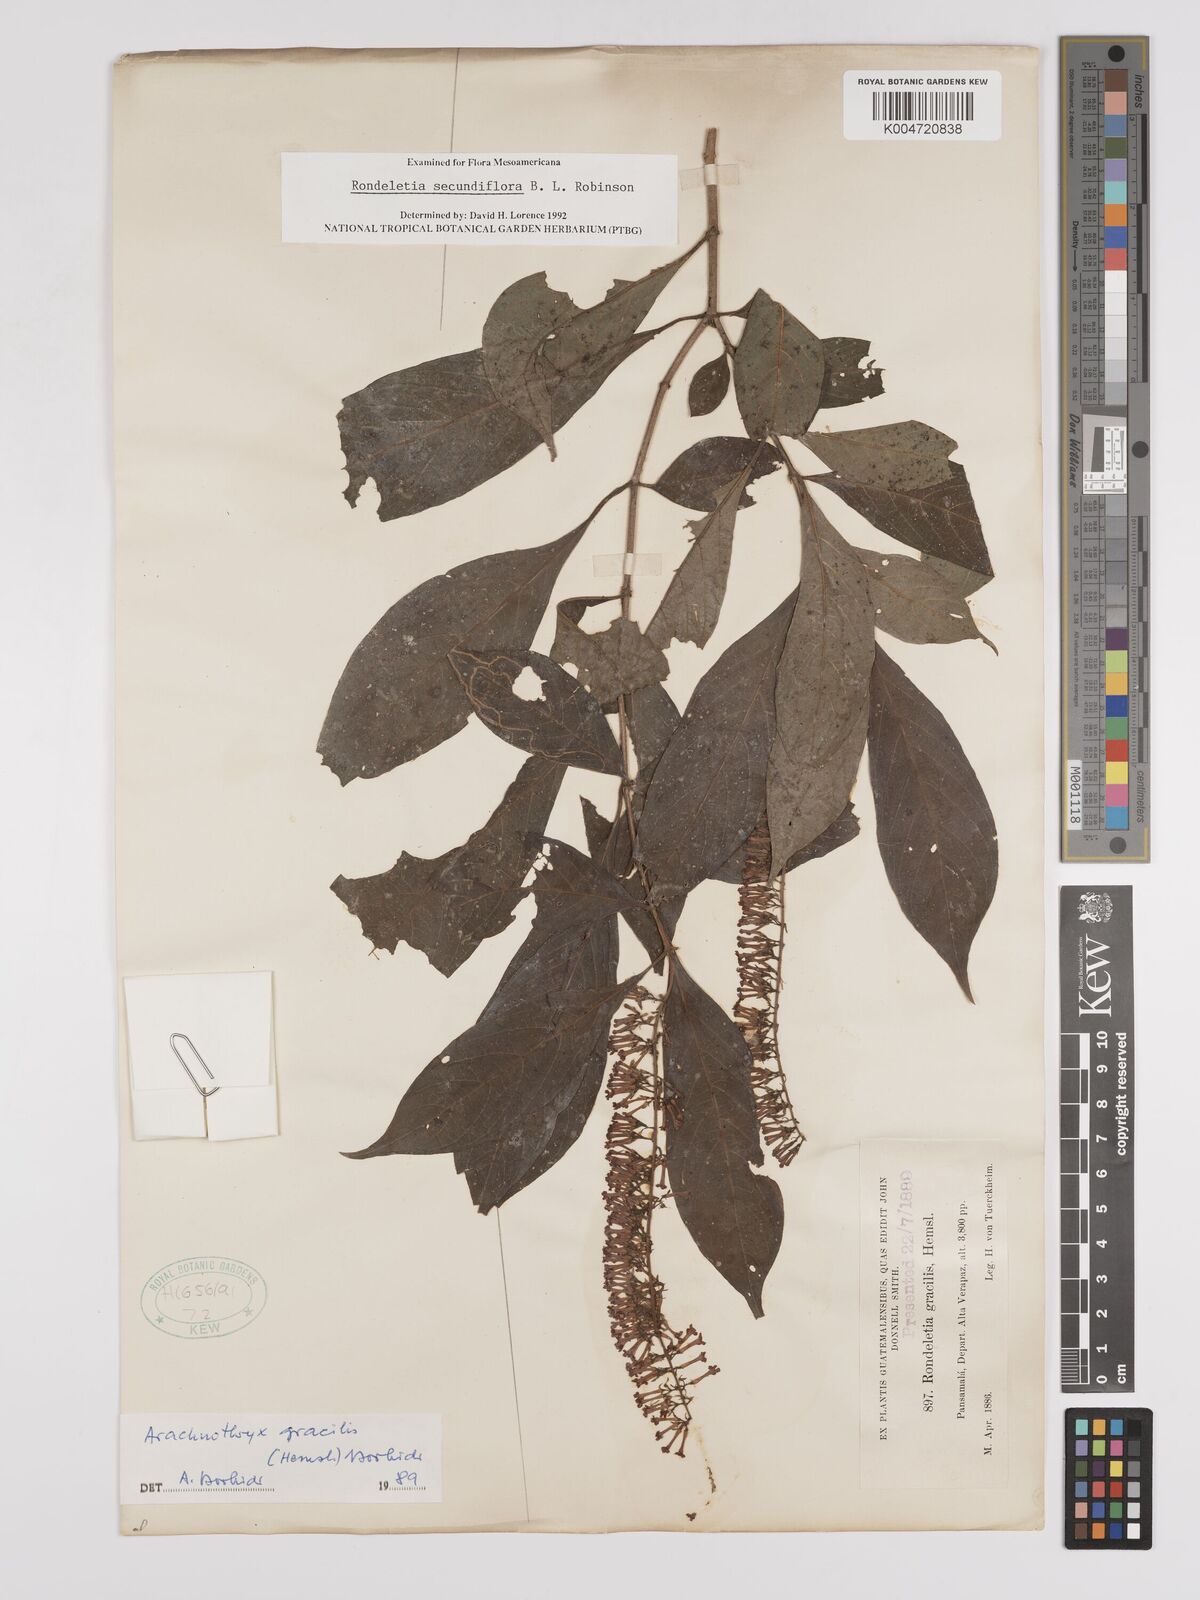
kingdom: Plantae
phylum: Tracheophyta
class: Magnoliopsida
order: Gentianales
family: Rubiaceae
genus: Arachnothryx
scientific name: Arachnothryx gracilis
